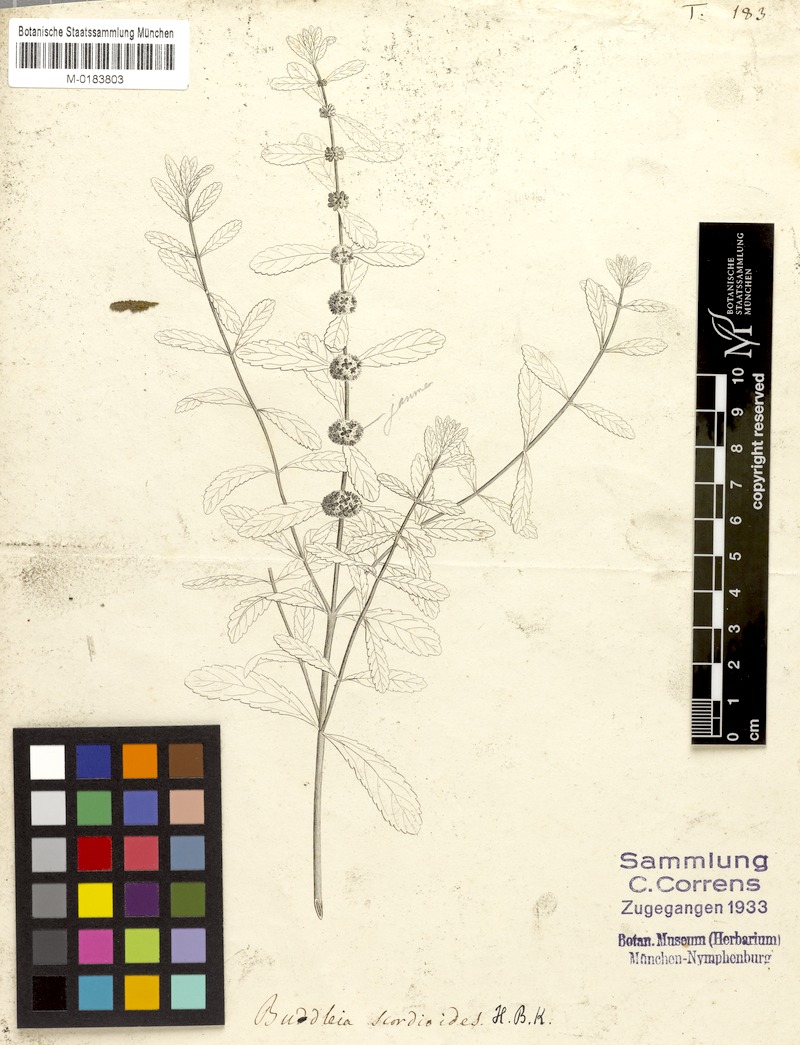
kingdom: Plantae
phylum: Tracheophyta
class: Magnoliopsida
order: Lamiales
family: Scrophulariaceae
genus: Buddleja
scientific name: Buddleja scordioides
